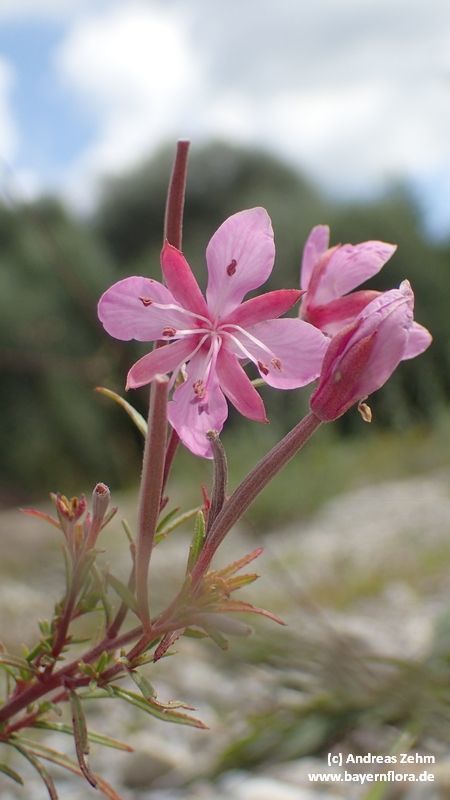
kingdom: Plantae
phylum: Tracheophyta
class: Magnoliopsida
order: Myrtales
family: Onagraceae
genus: Chamaenerion
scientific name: Chamaenerion dodonaei
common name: Rosemary-leaved willowherb
